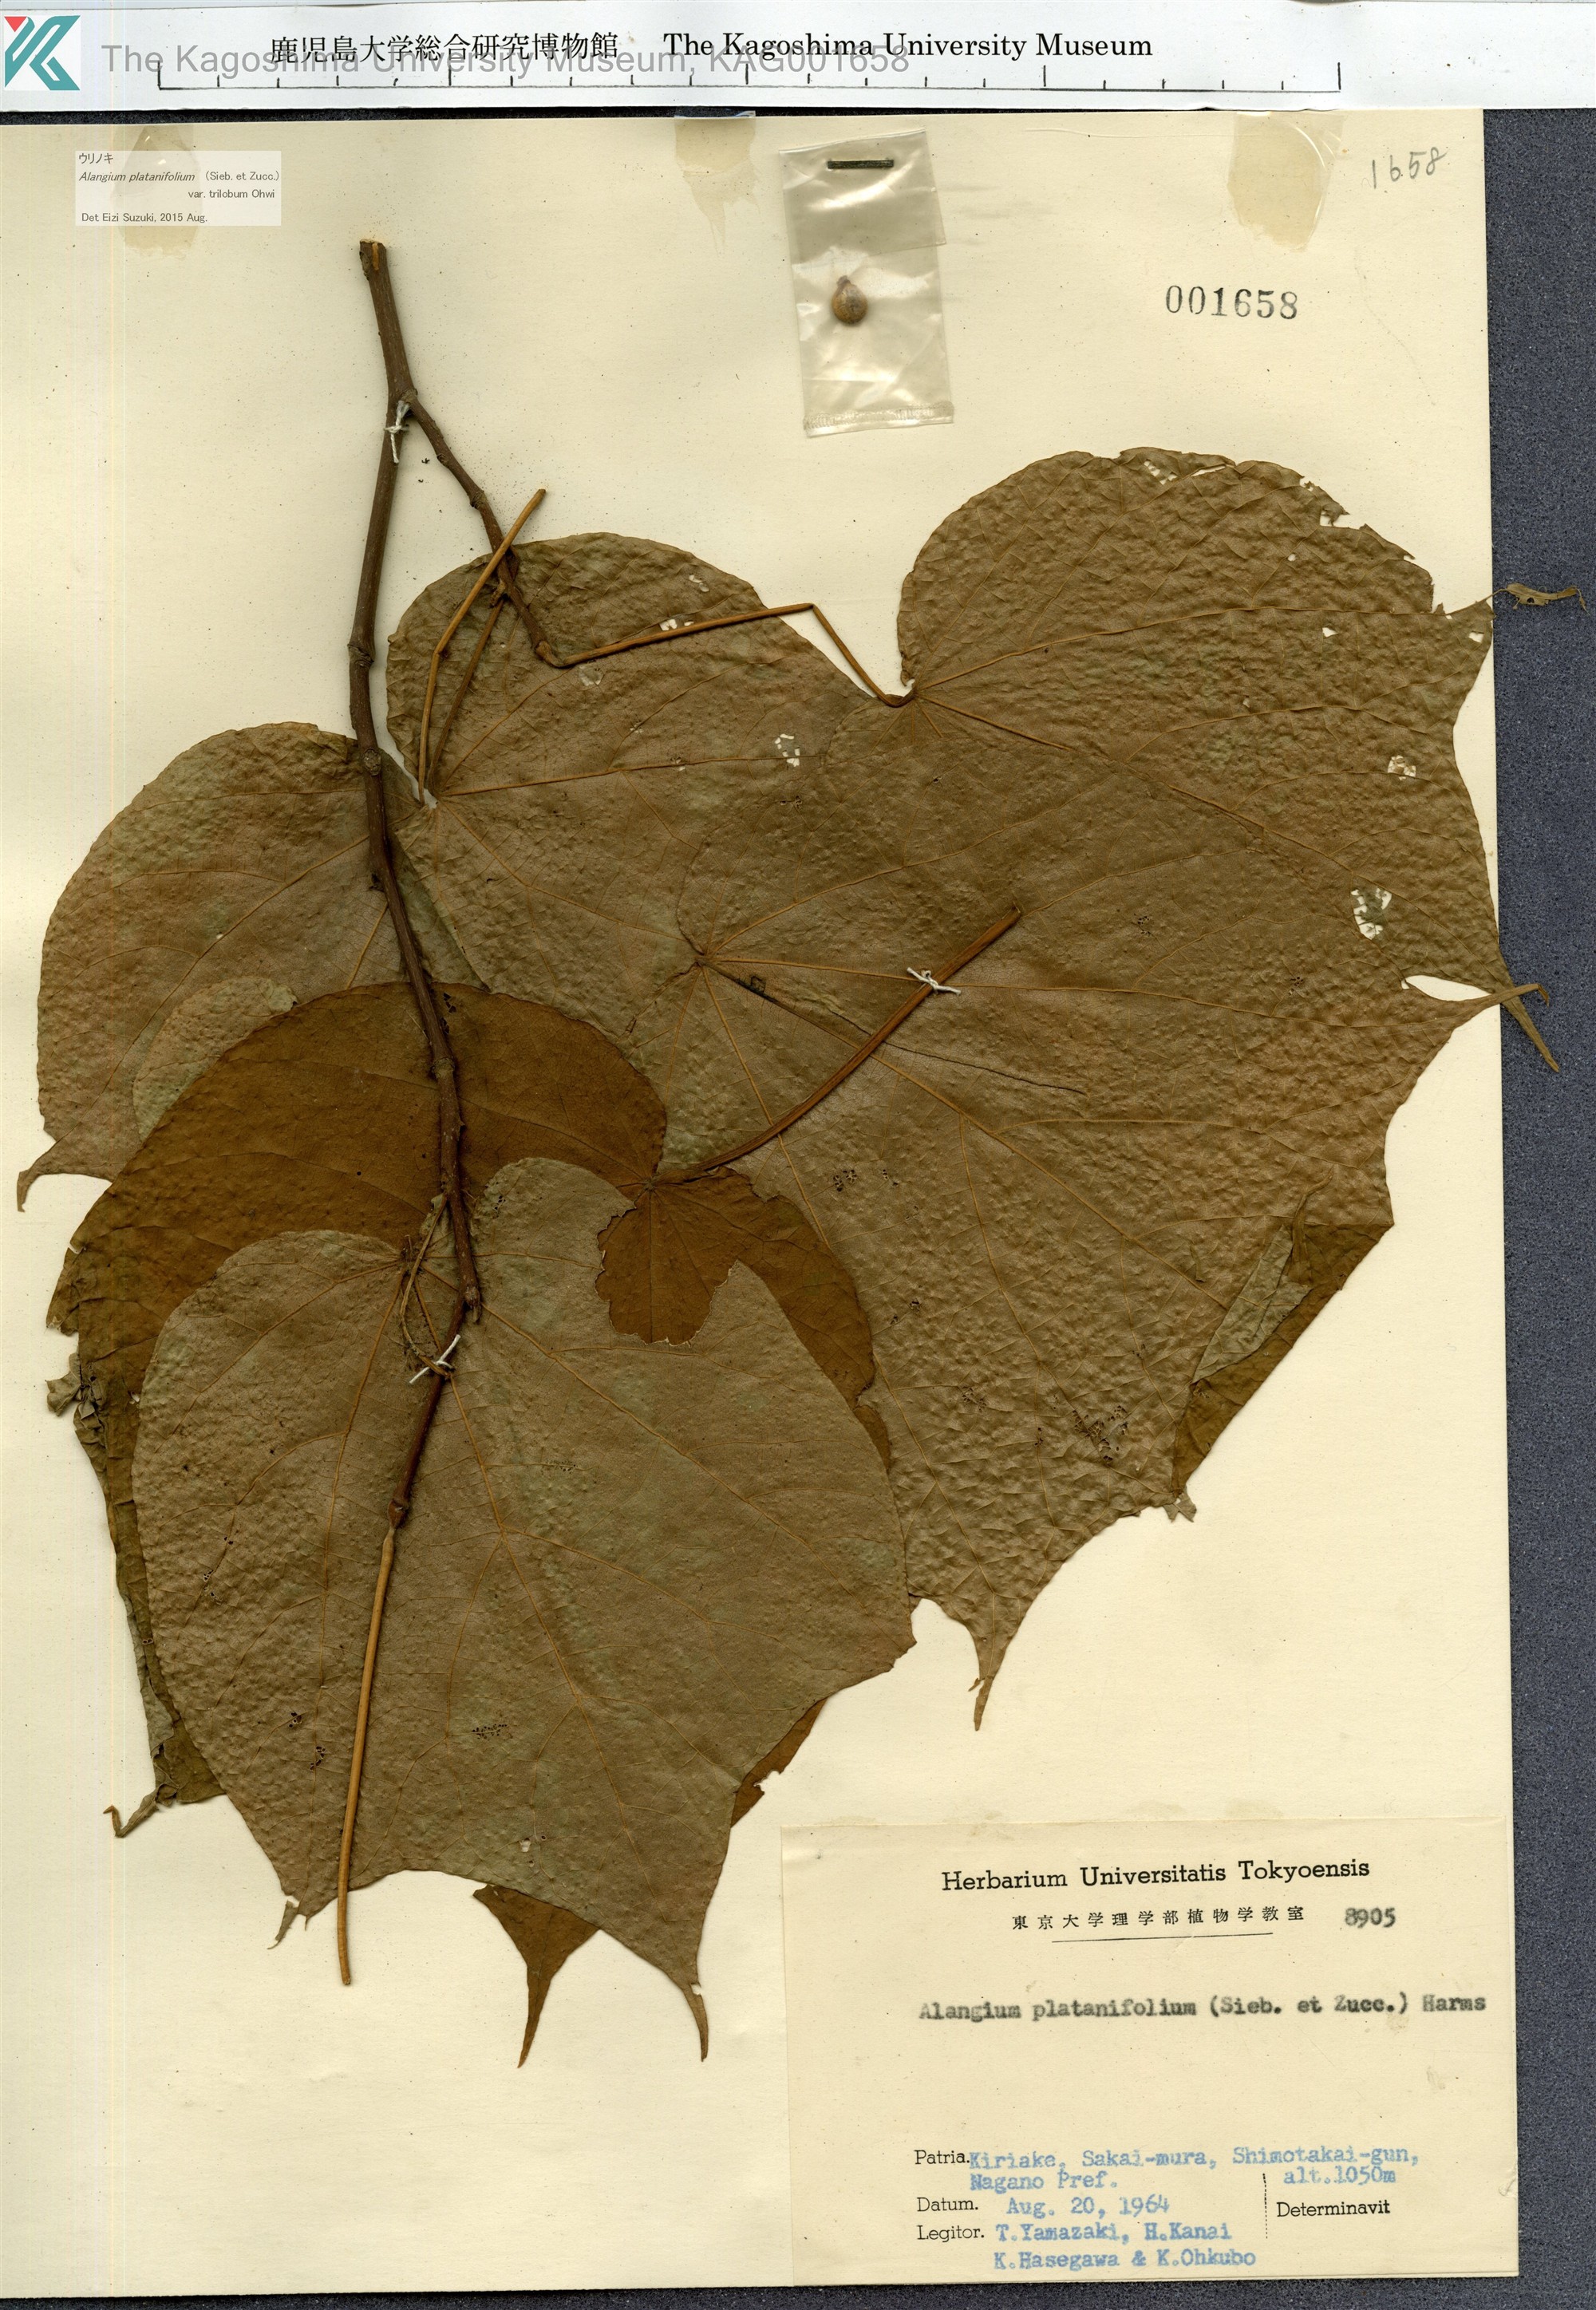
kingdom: Plantae
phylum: Tracheophyta
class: Magnoliopsida
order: Cornales
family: Cornaceae
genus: Alangium
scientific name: Alangium platanifolium
